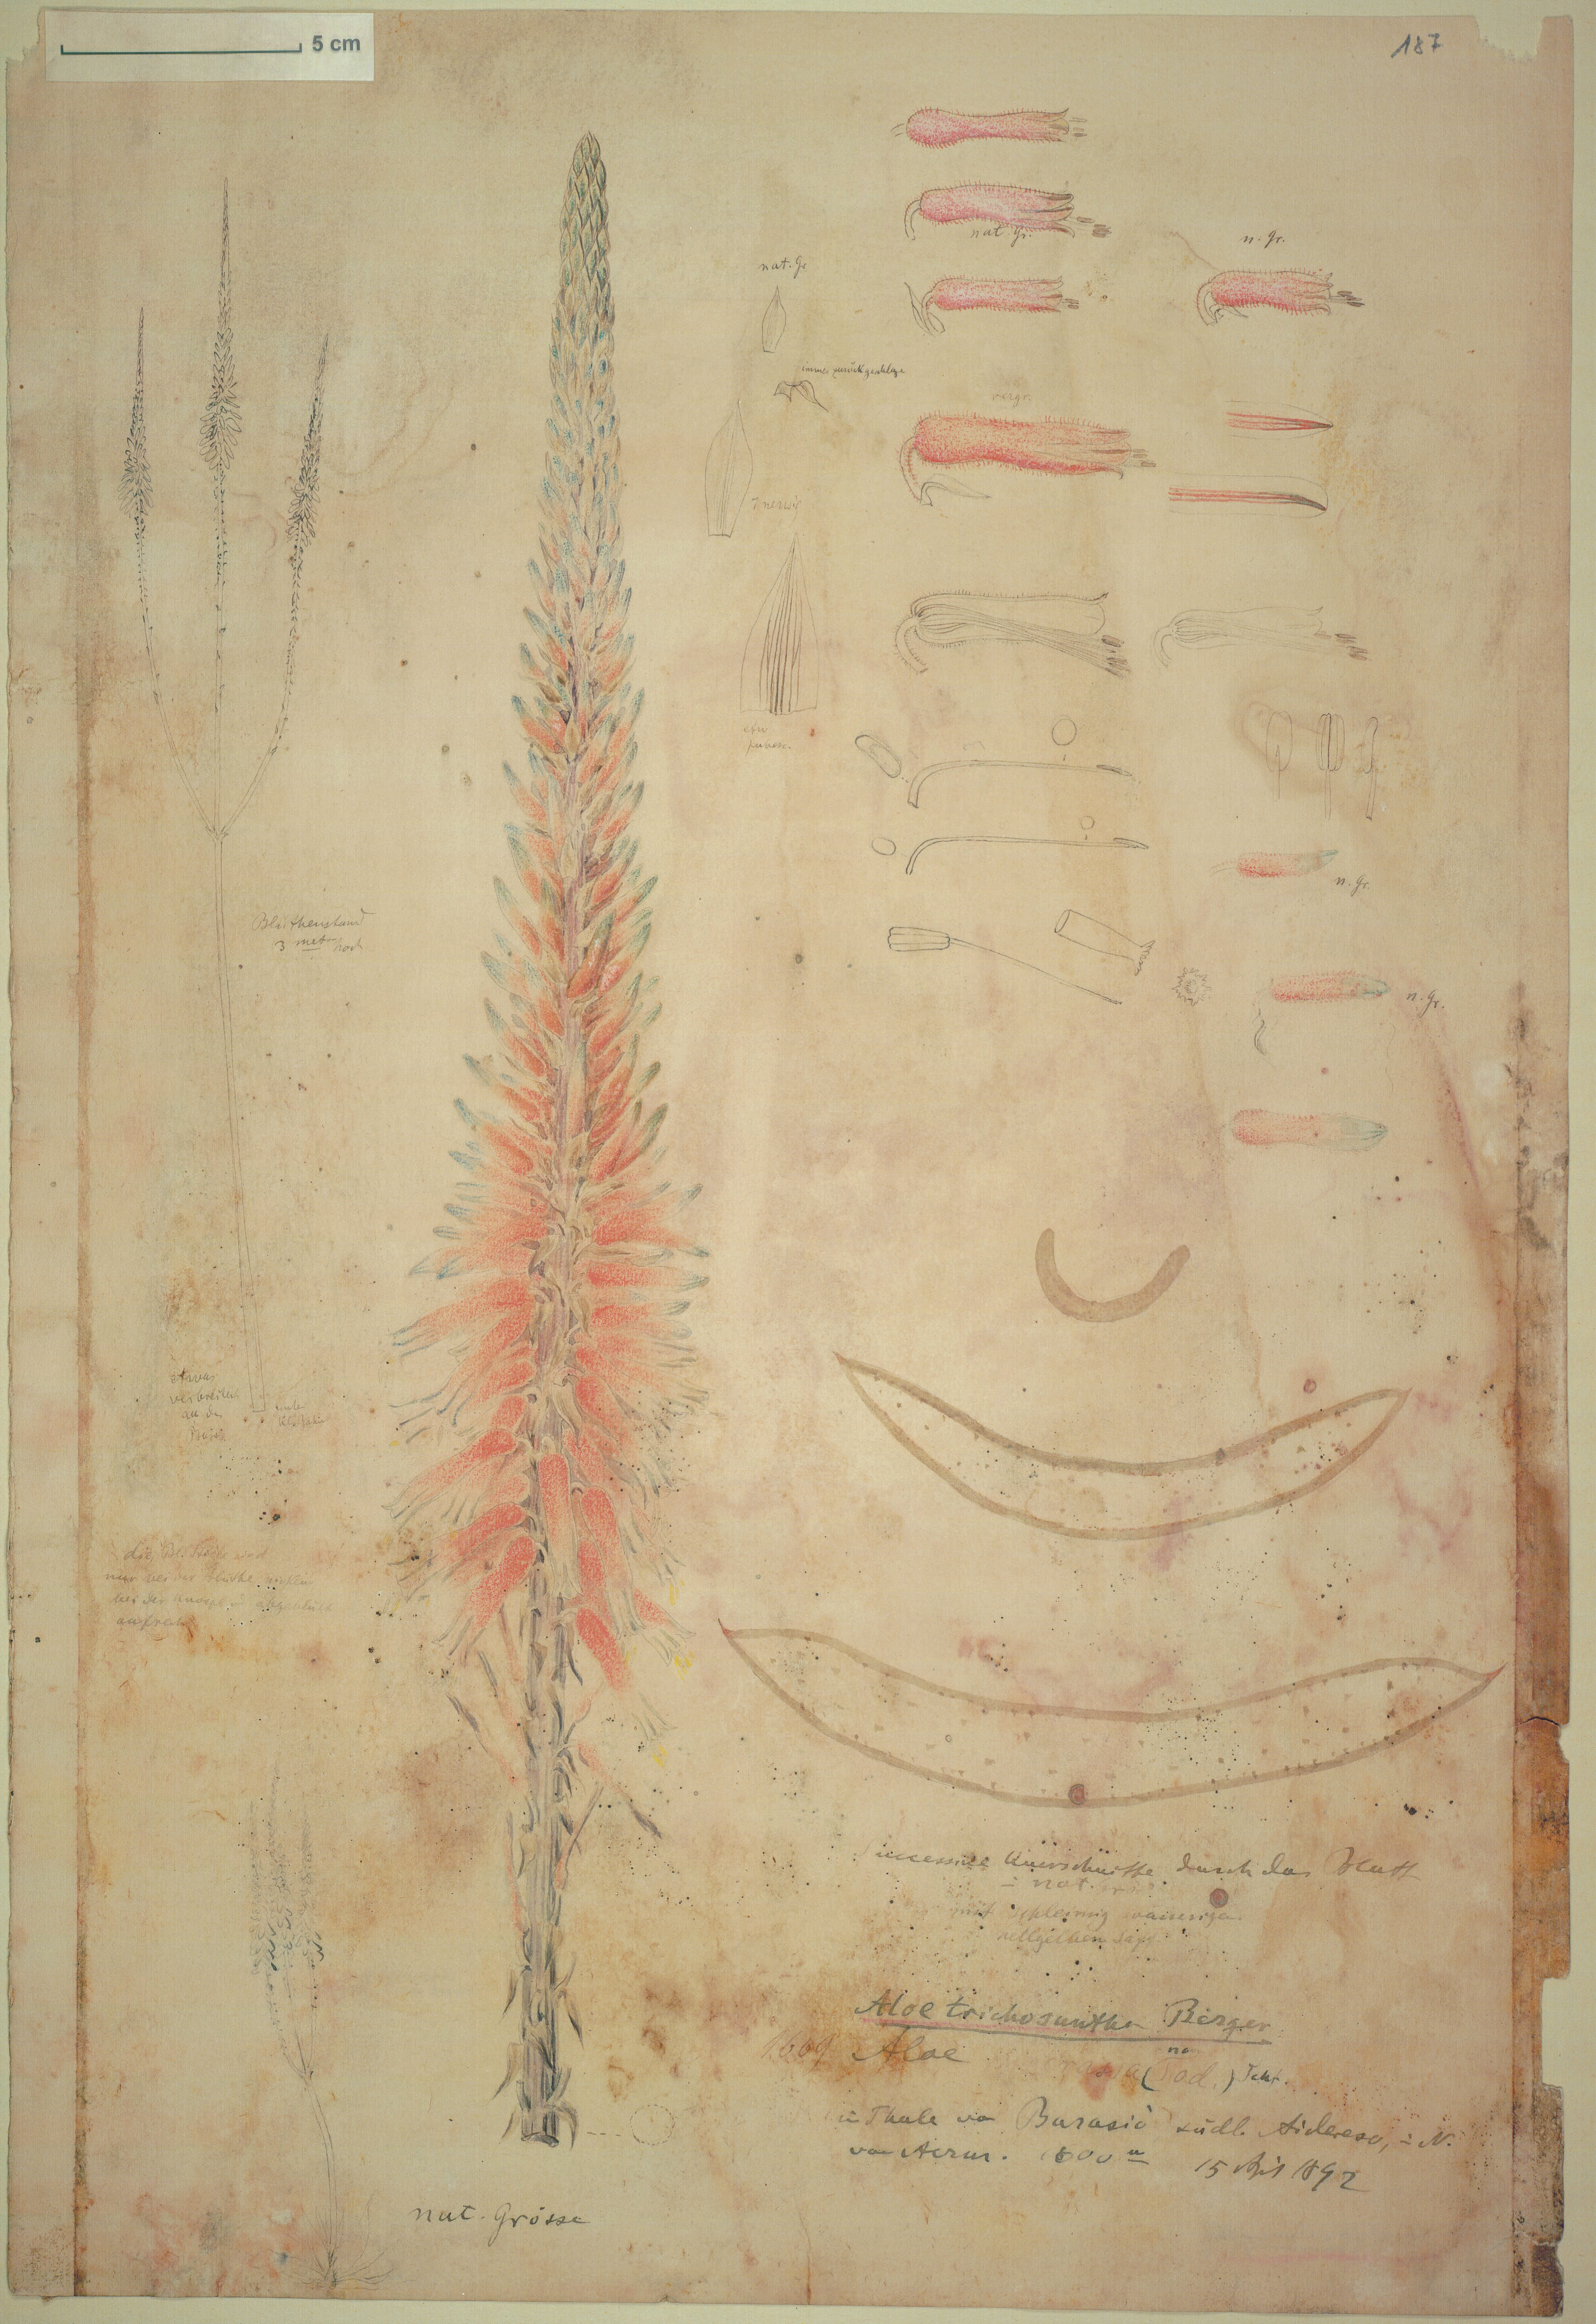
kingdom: Plantae
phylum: Tracheophyta
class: Liliopsida
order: Asparagales
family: Asphodelaceae
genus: Aloe
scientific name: Aloe trichosantha
